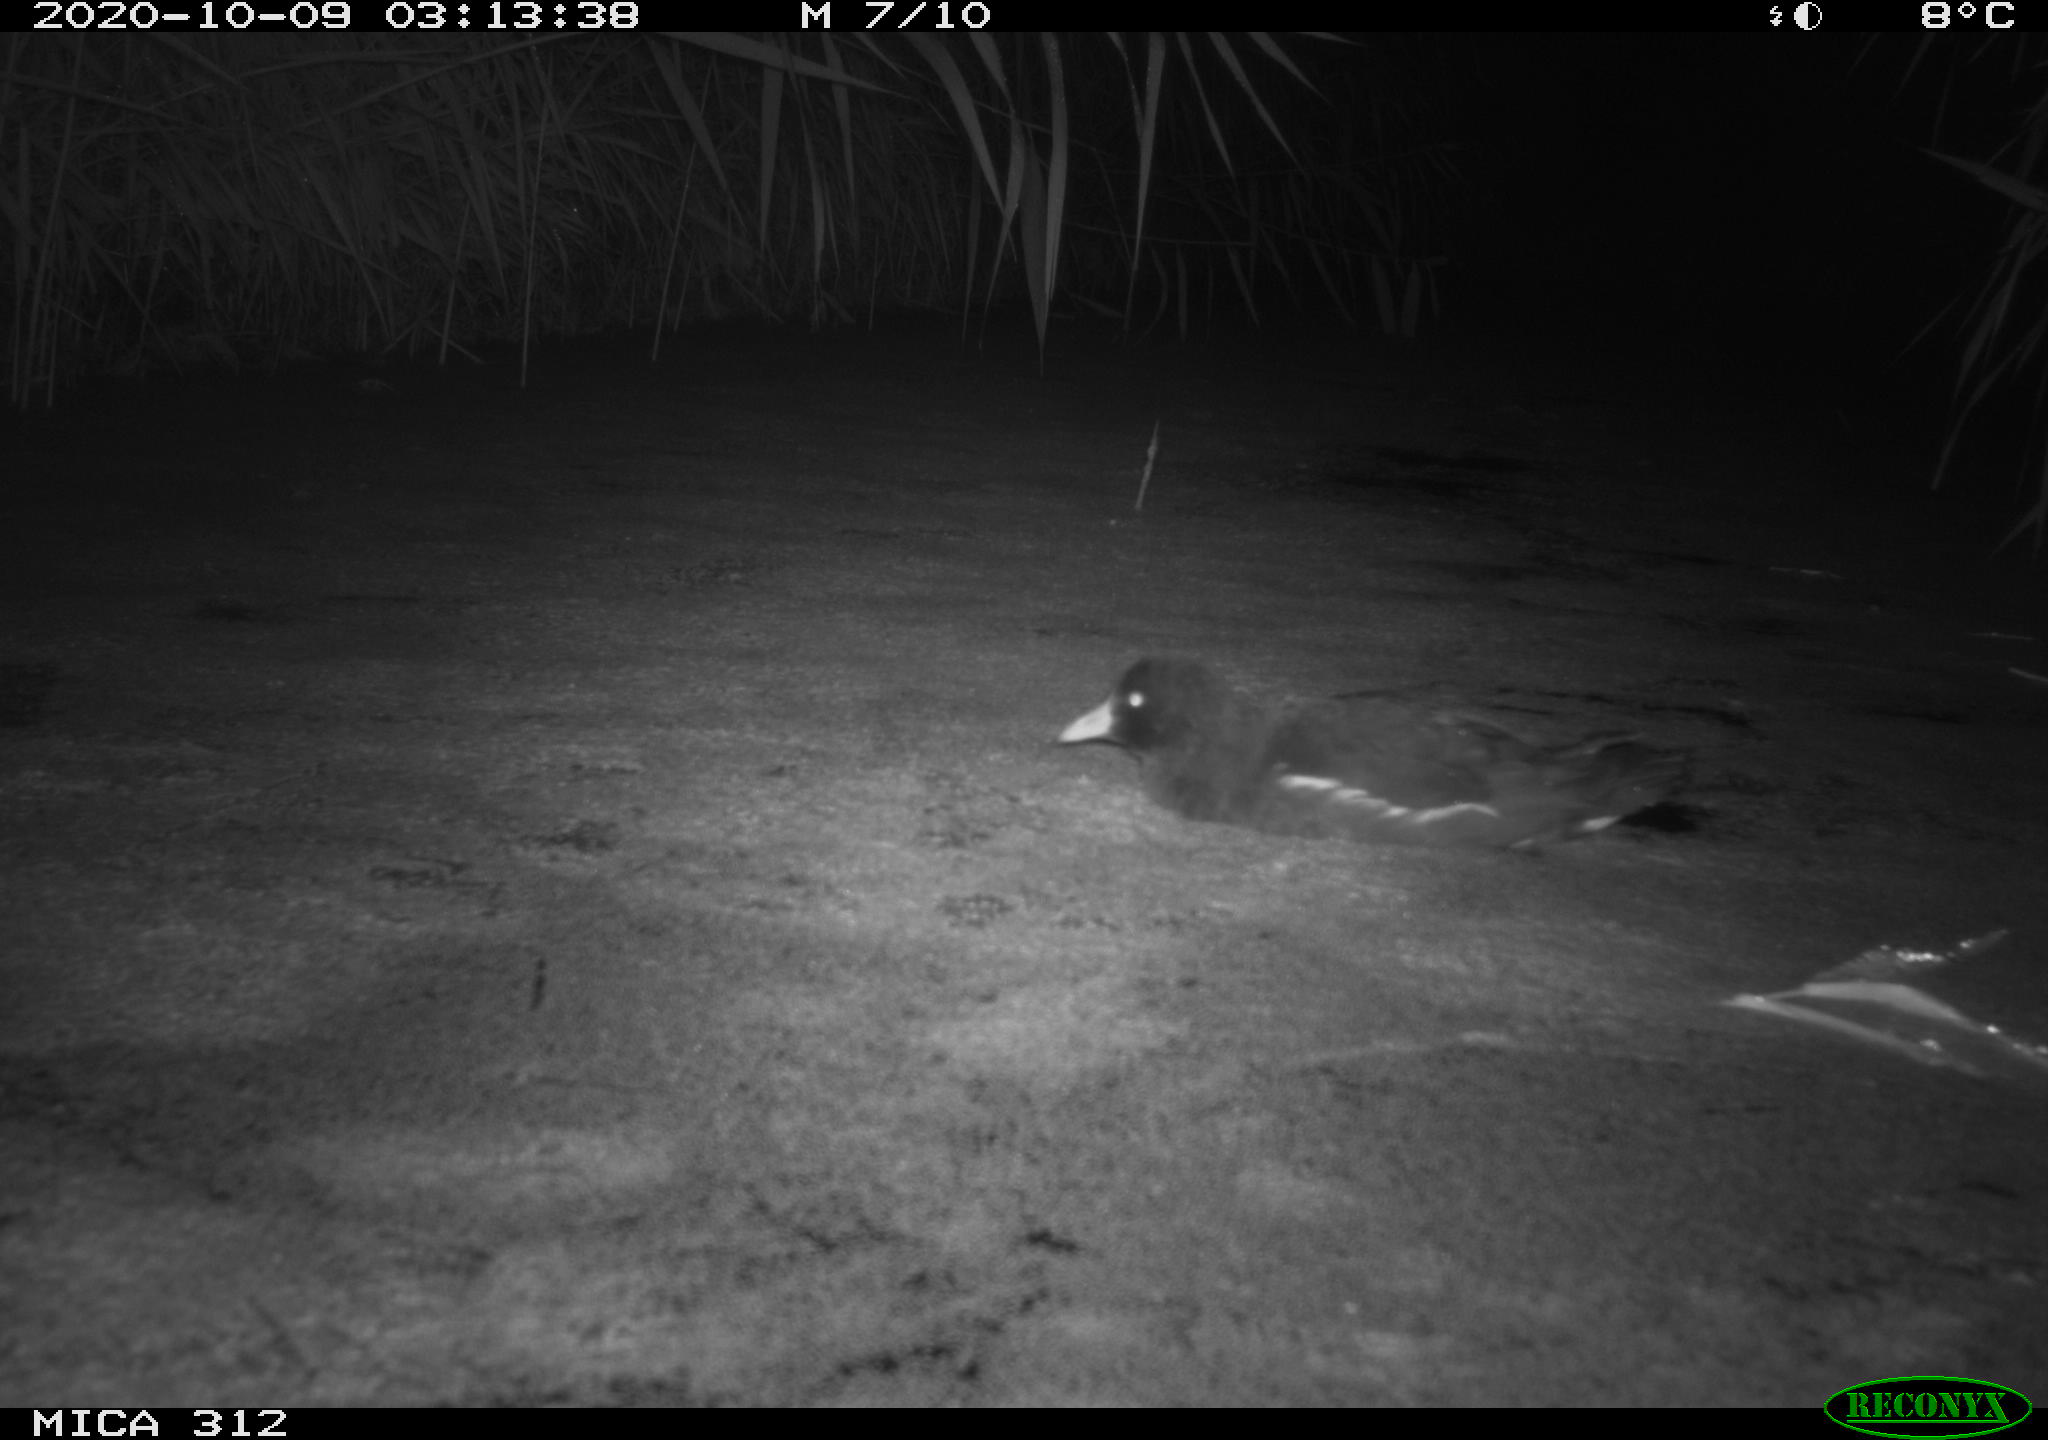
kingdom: Animalia
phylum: Chordata
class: Aves
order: Gruiformes
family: Rallidae
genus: Fulica
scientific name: Fulica atra
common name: Eurasian coot
